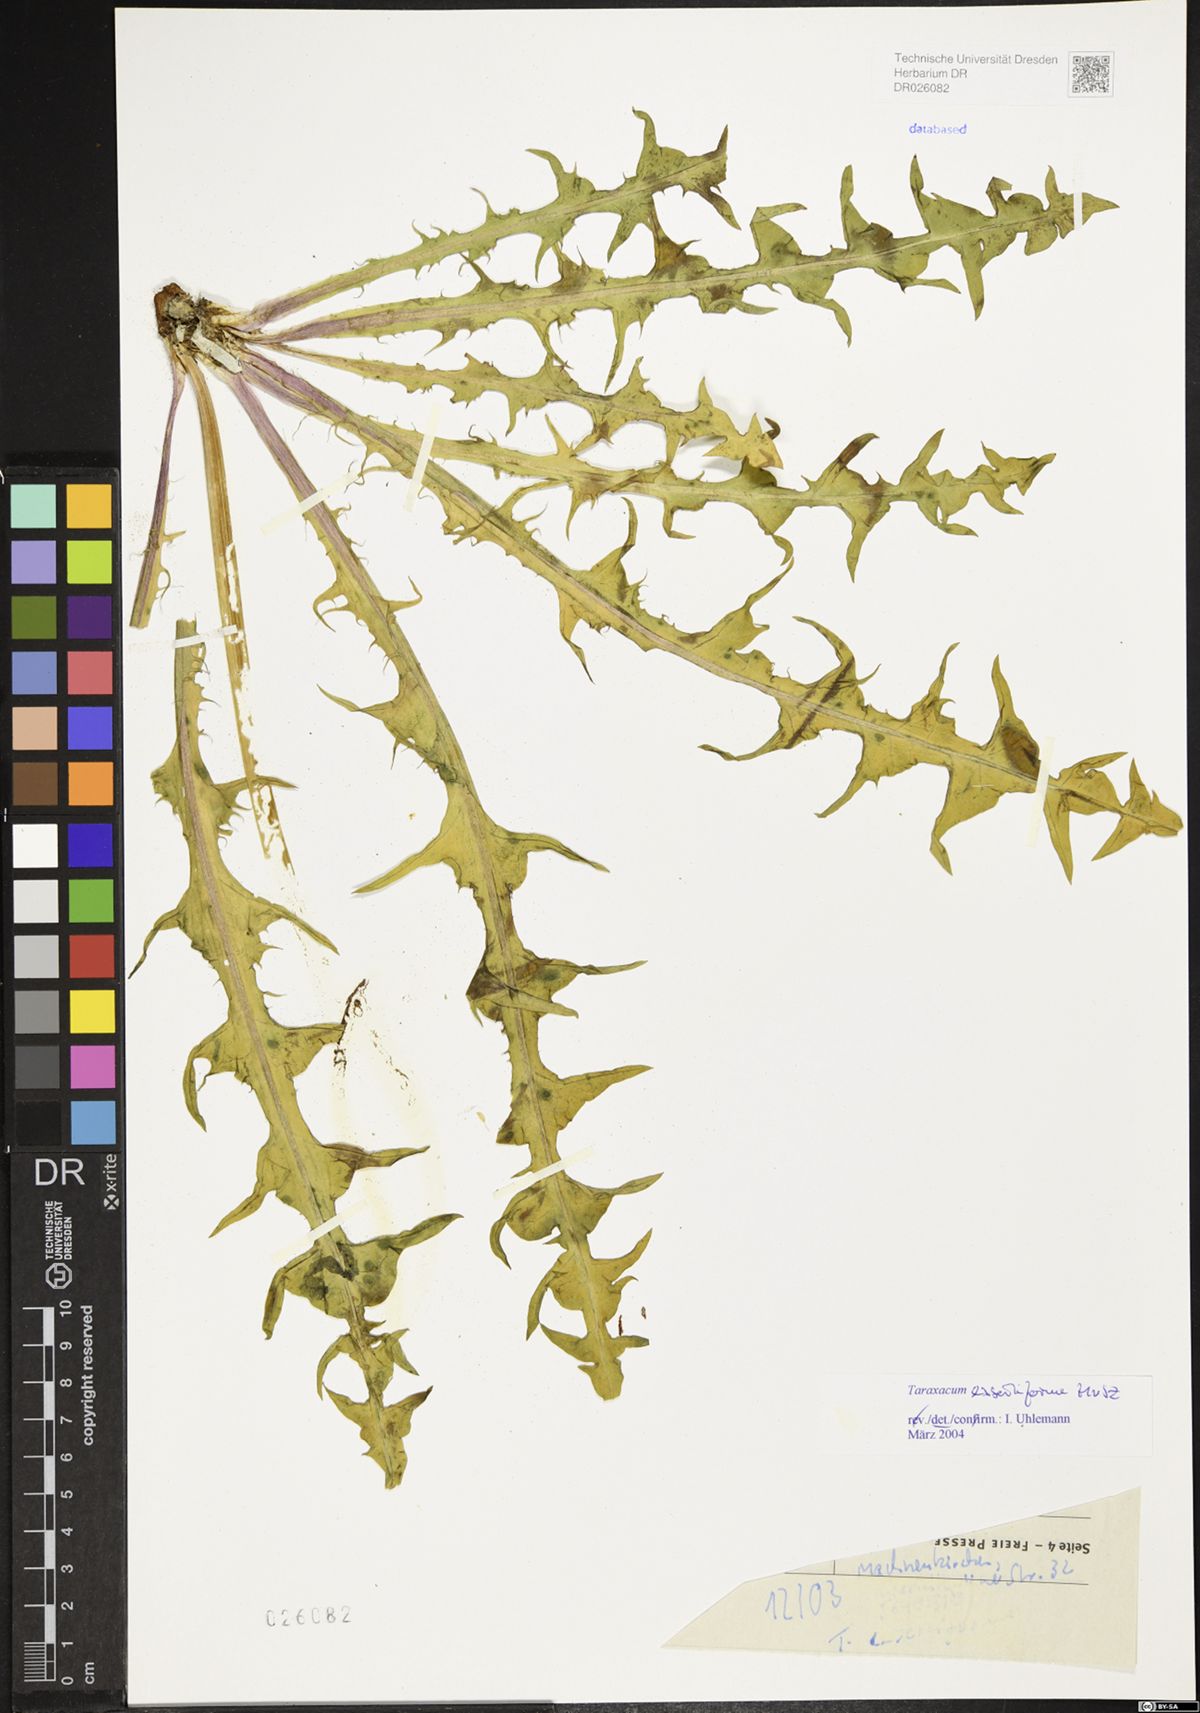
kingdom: Plantae
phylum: Tracheophyta
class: Magnoliopsida
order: Asterales
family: Asteraceae
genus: Taraxacum
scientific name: Taraxacum exsertiforme
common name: Erect-bracted dandelion
